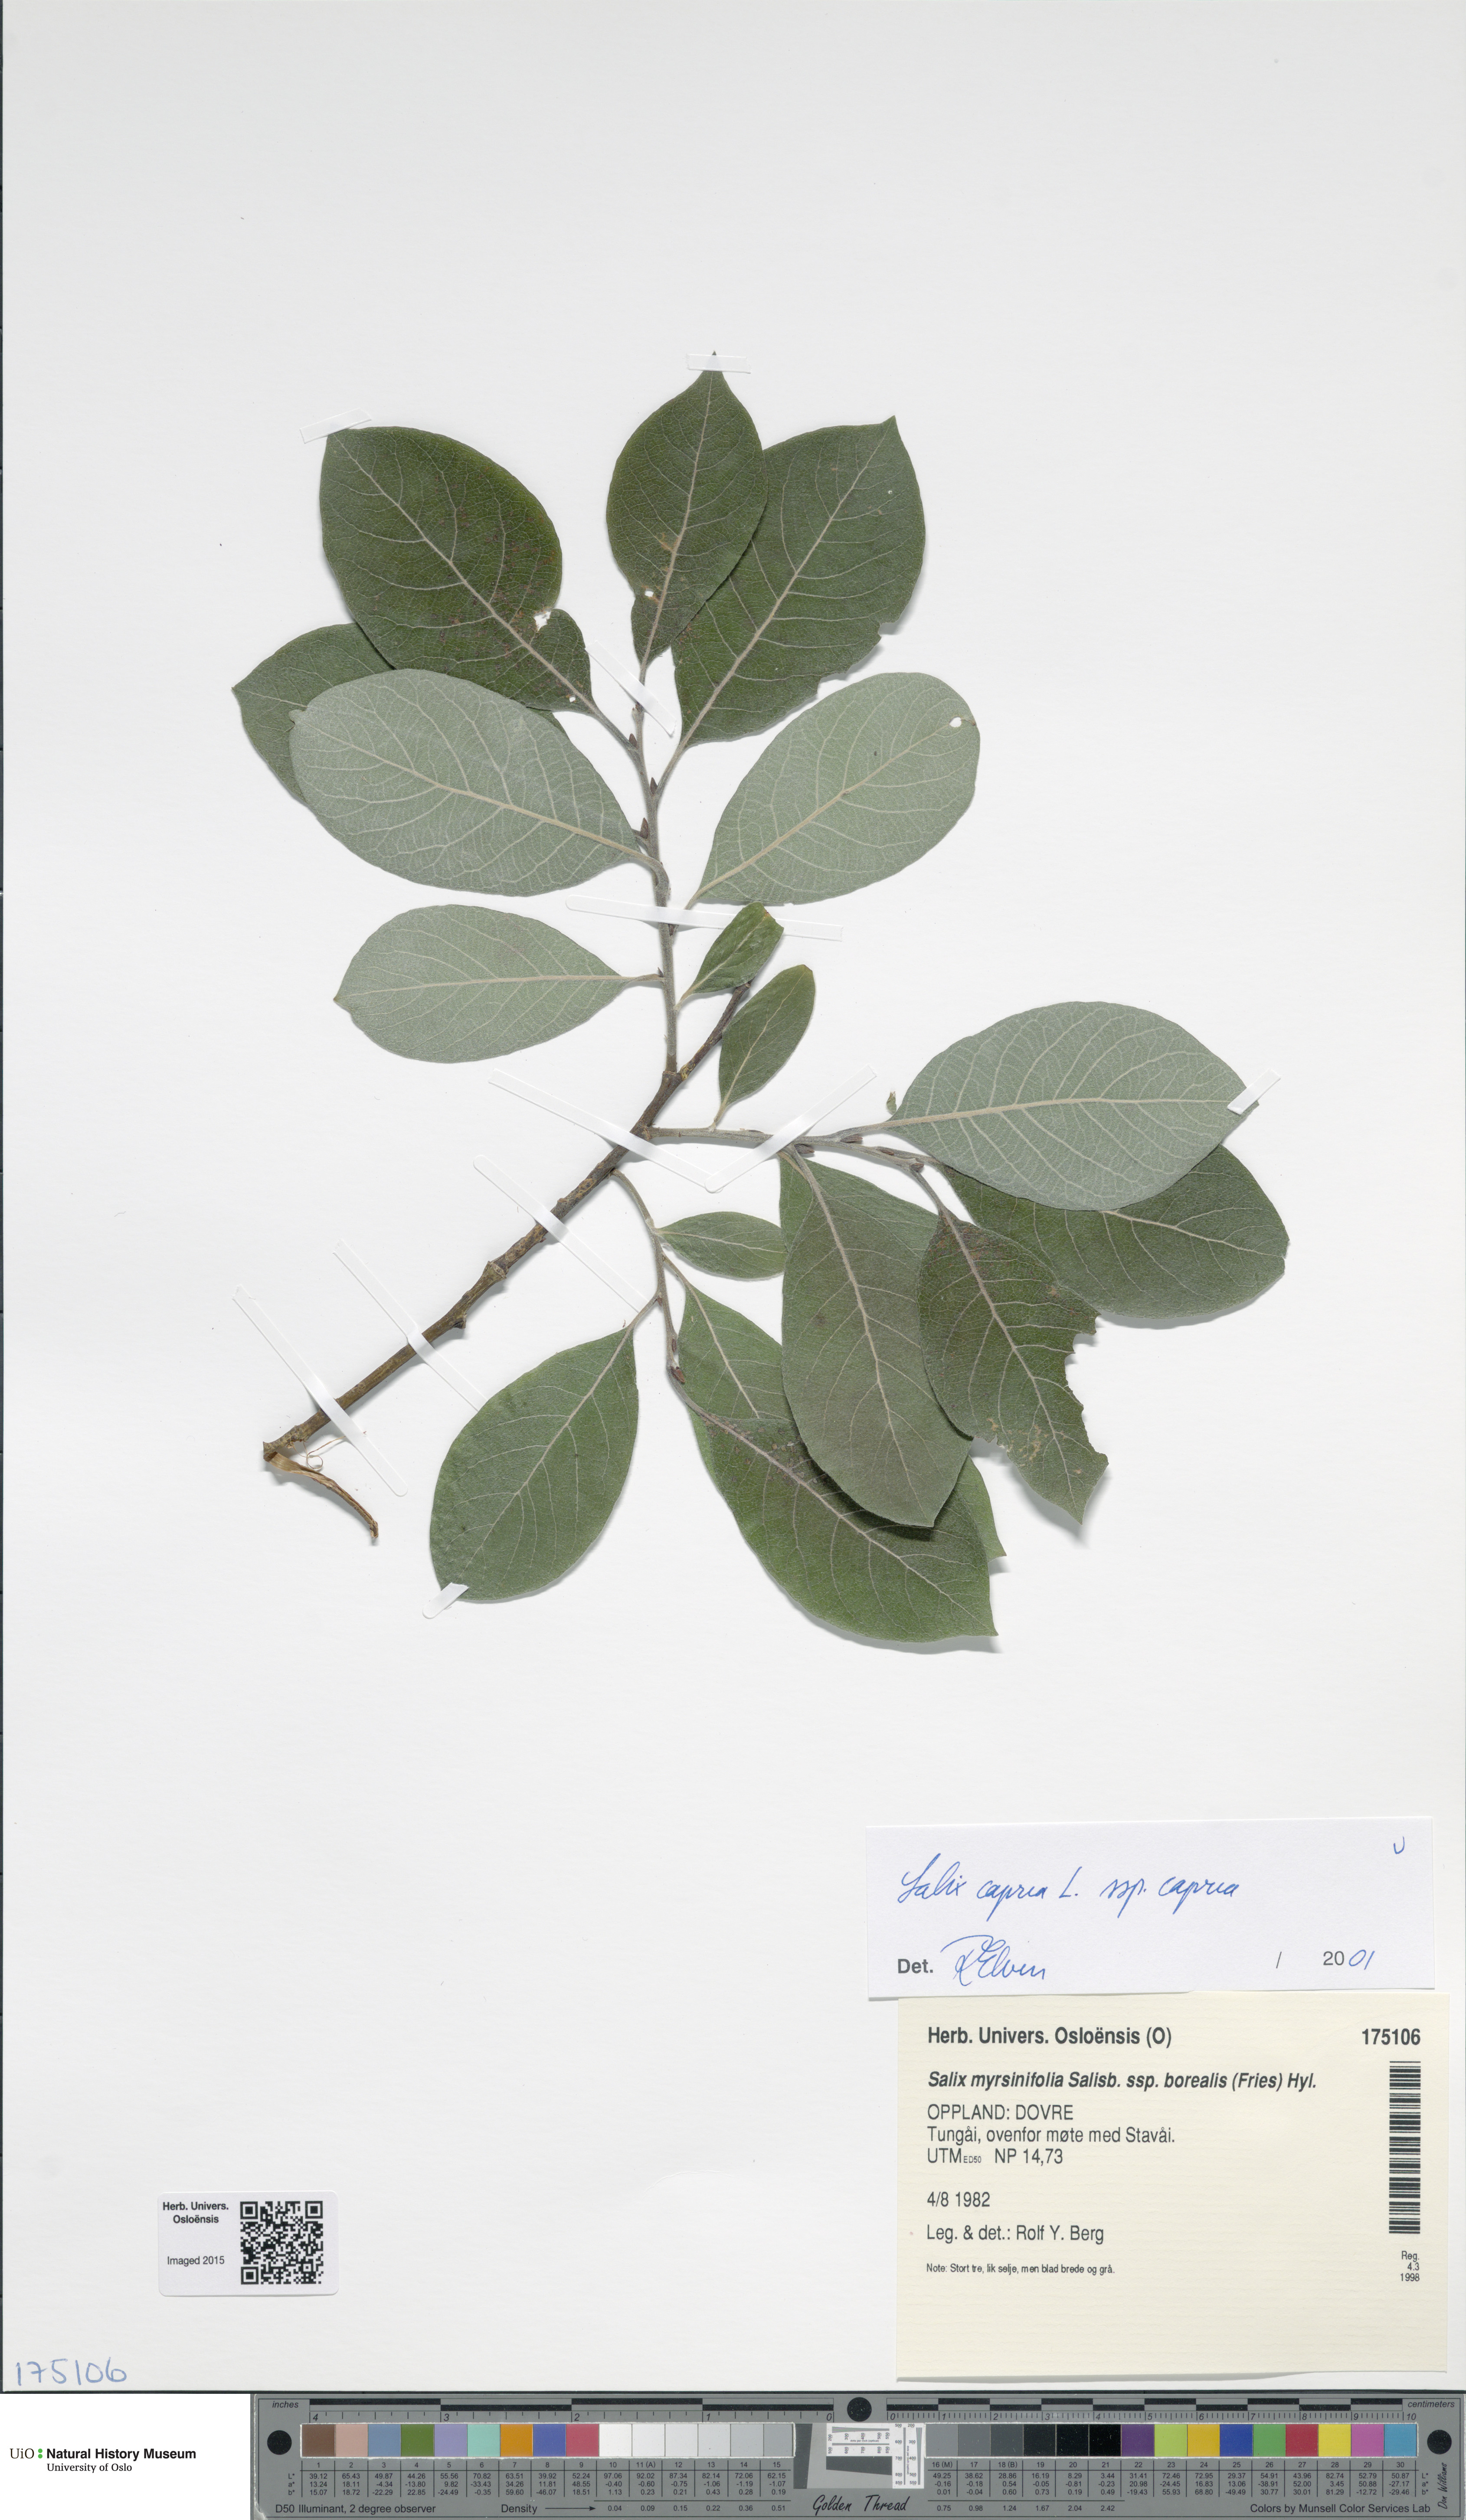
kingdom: Plantae
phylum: Tracheophyta
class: Magnoliopsida
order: Malpighiales
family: Salicaceae
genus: Salix
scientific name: Salix caprea
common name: Goat willow
